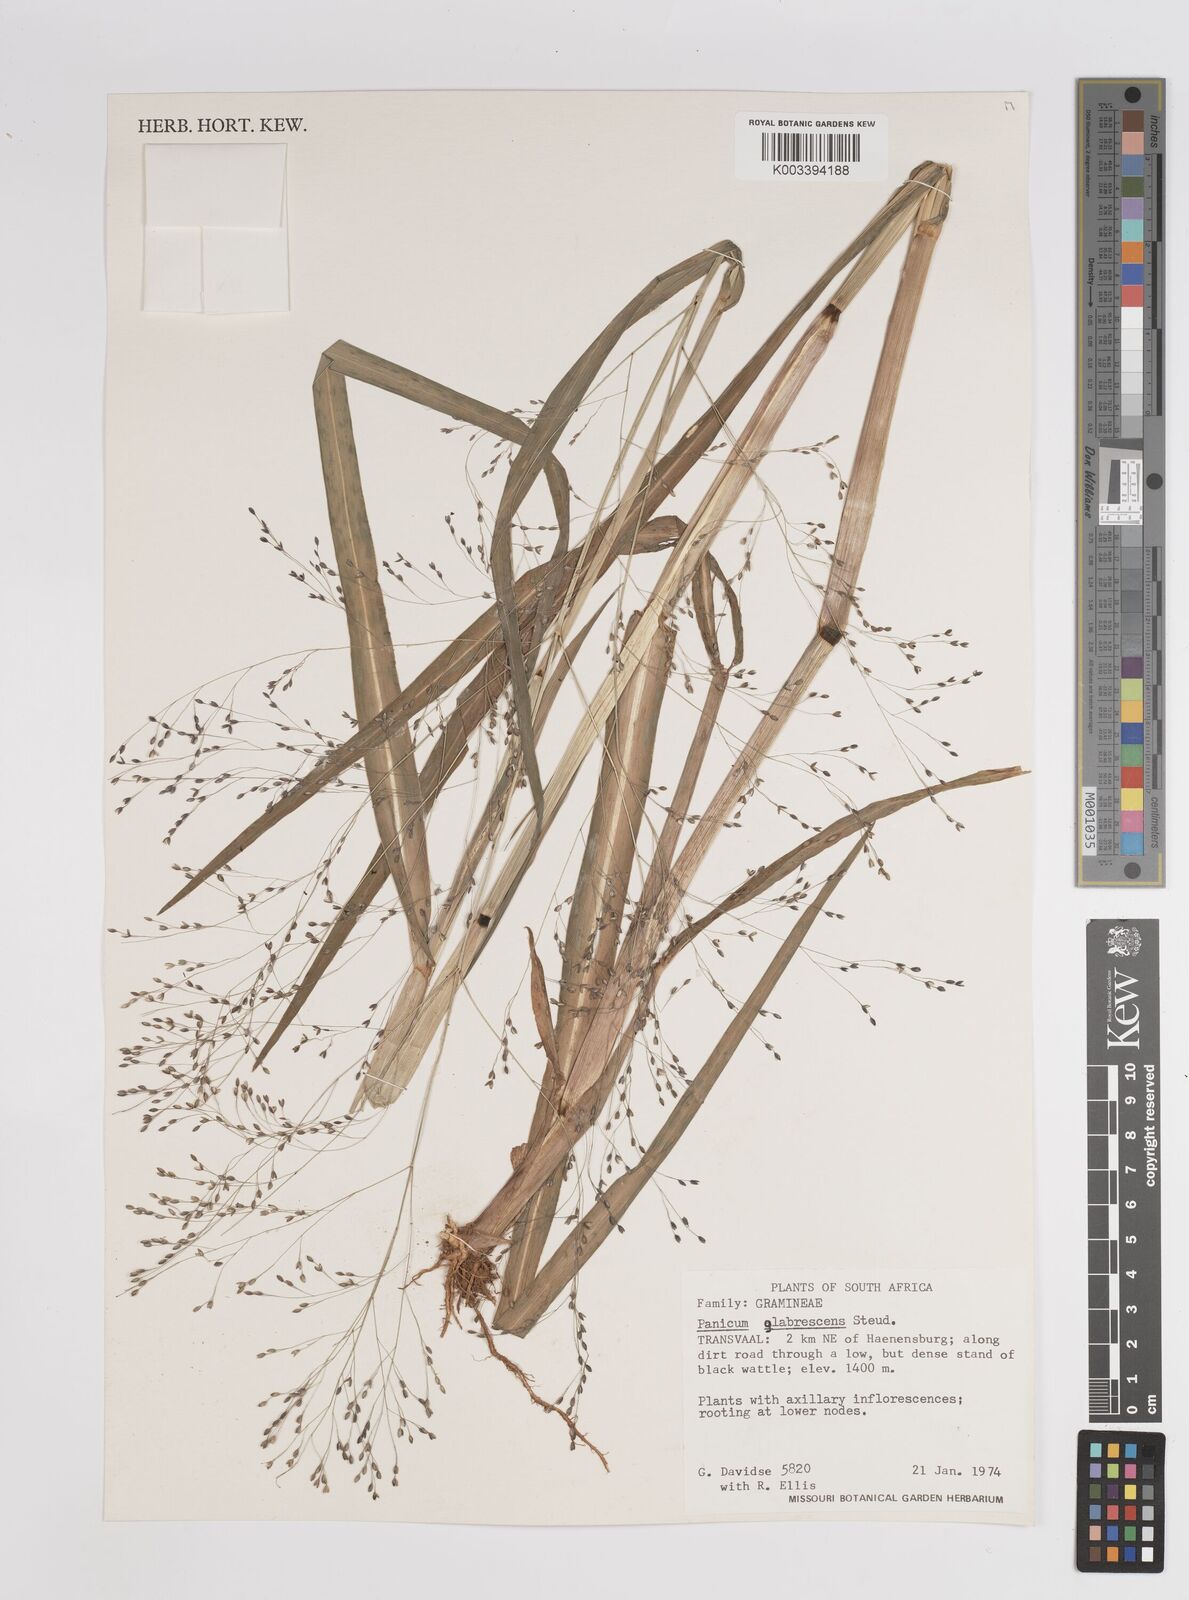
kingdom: Plantae
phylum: Tracheophyta
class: Liliopsida
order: Poales
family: Poaceae
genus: Panicum
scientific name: Panicum schinzii
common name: Sweet grass
